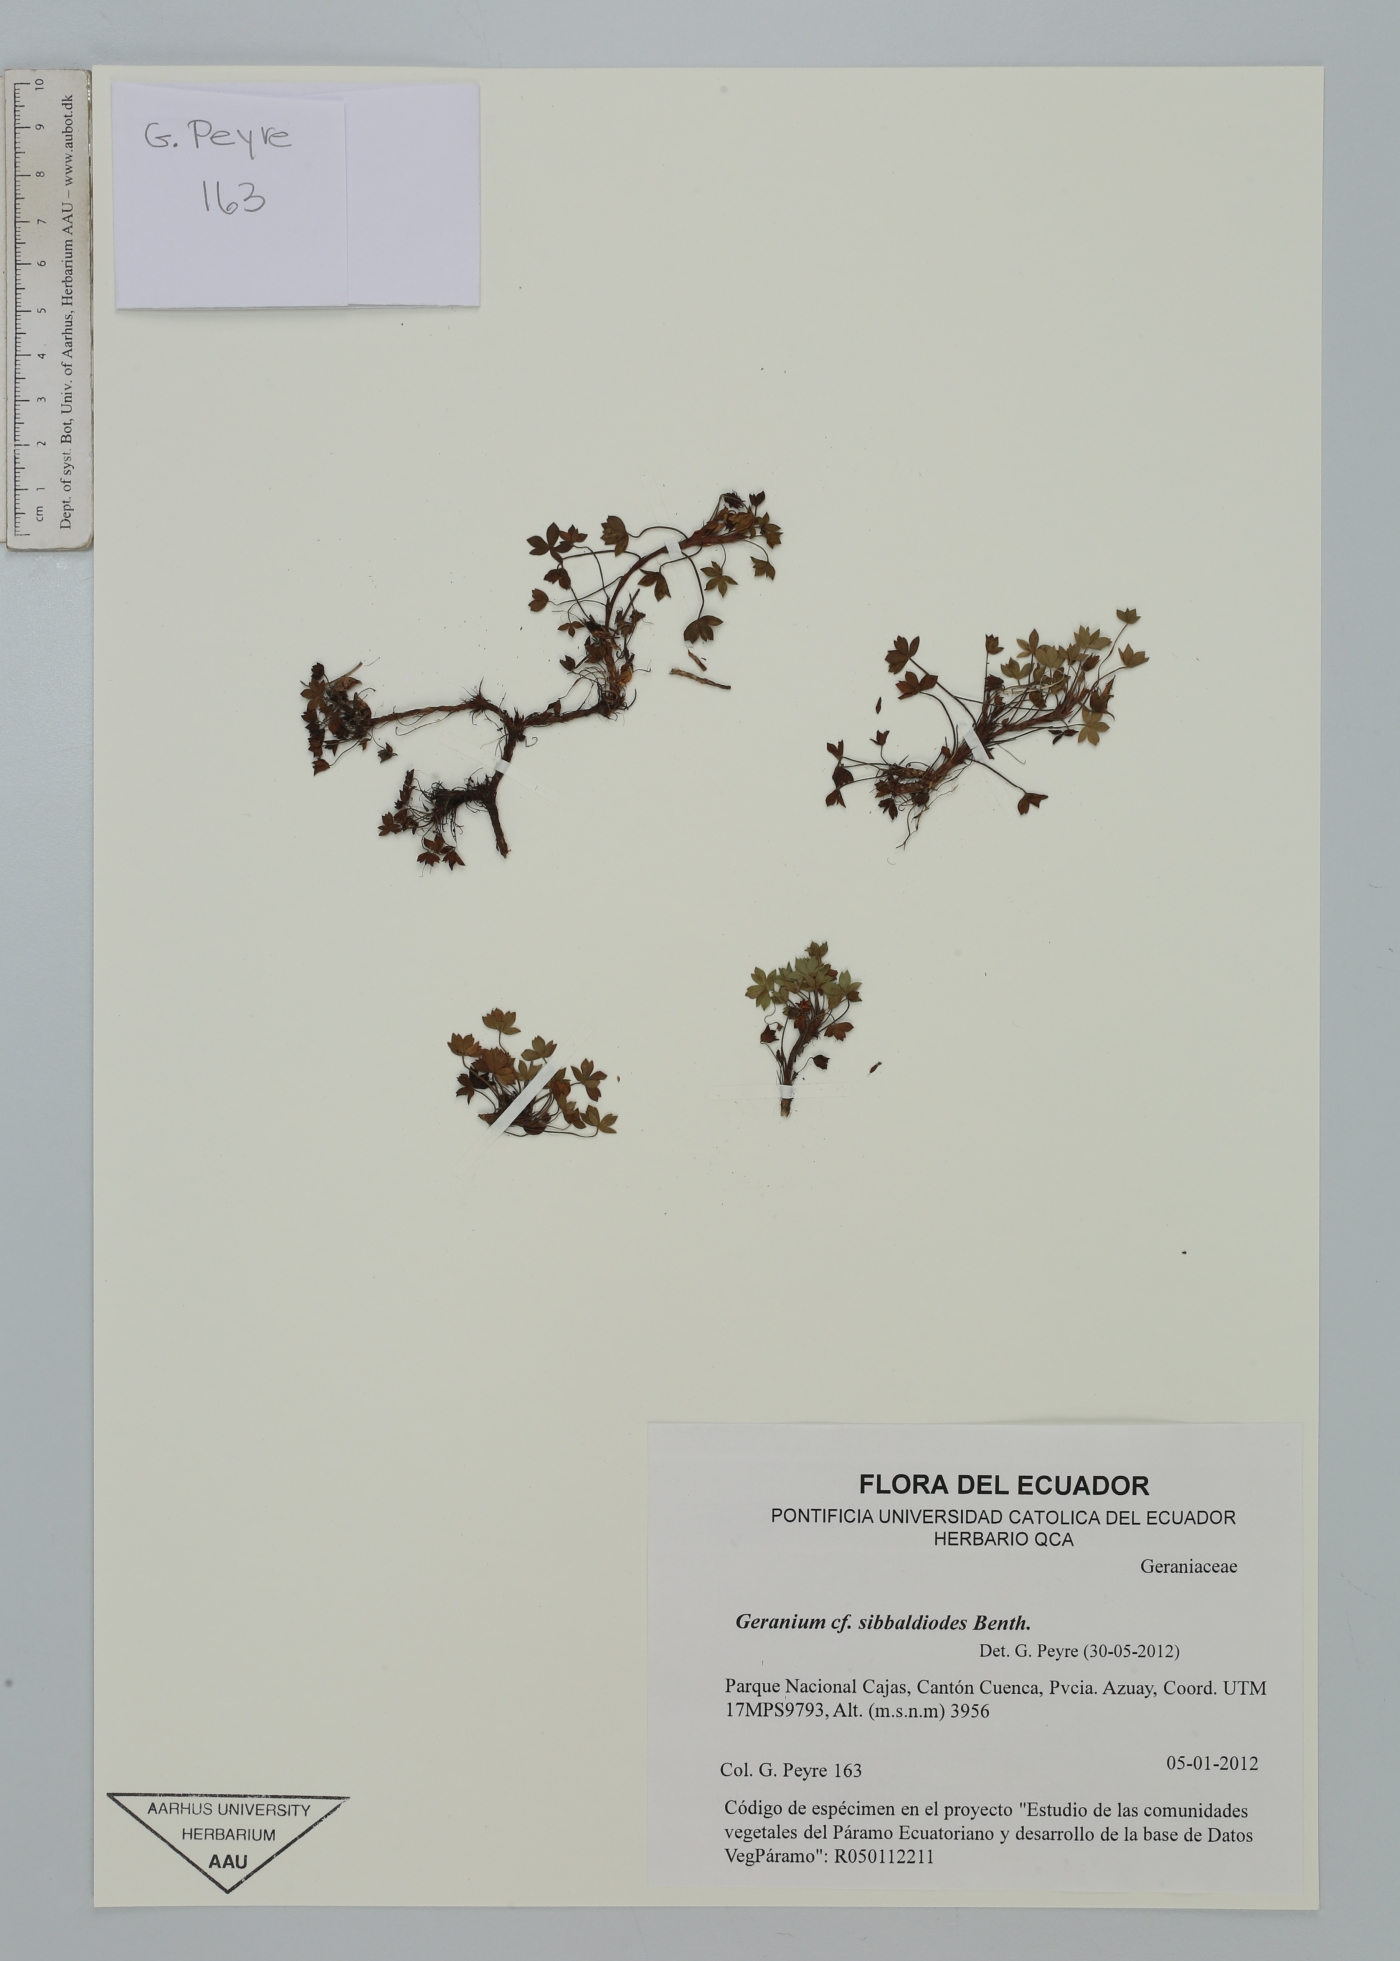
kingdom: Plantae
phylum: Tracheophyta
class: Magnoliopsida
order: Geraniales
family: Geraniaceae
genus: Geranium
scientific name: Geranium sibbaldioides
